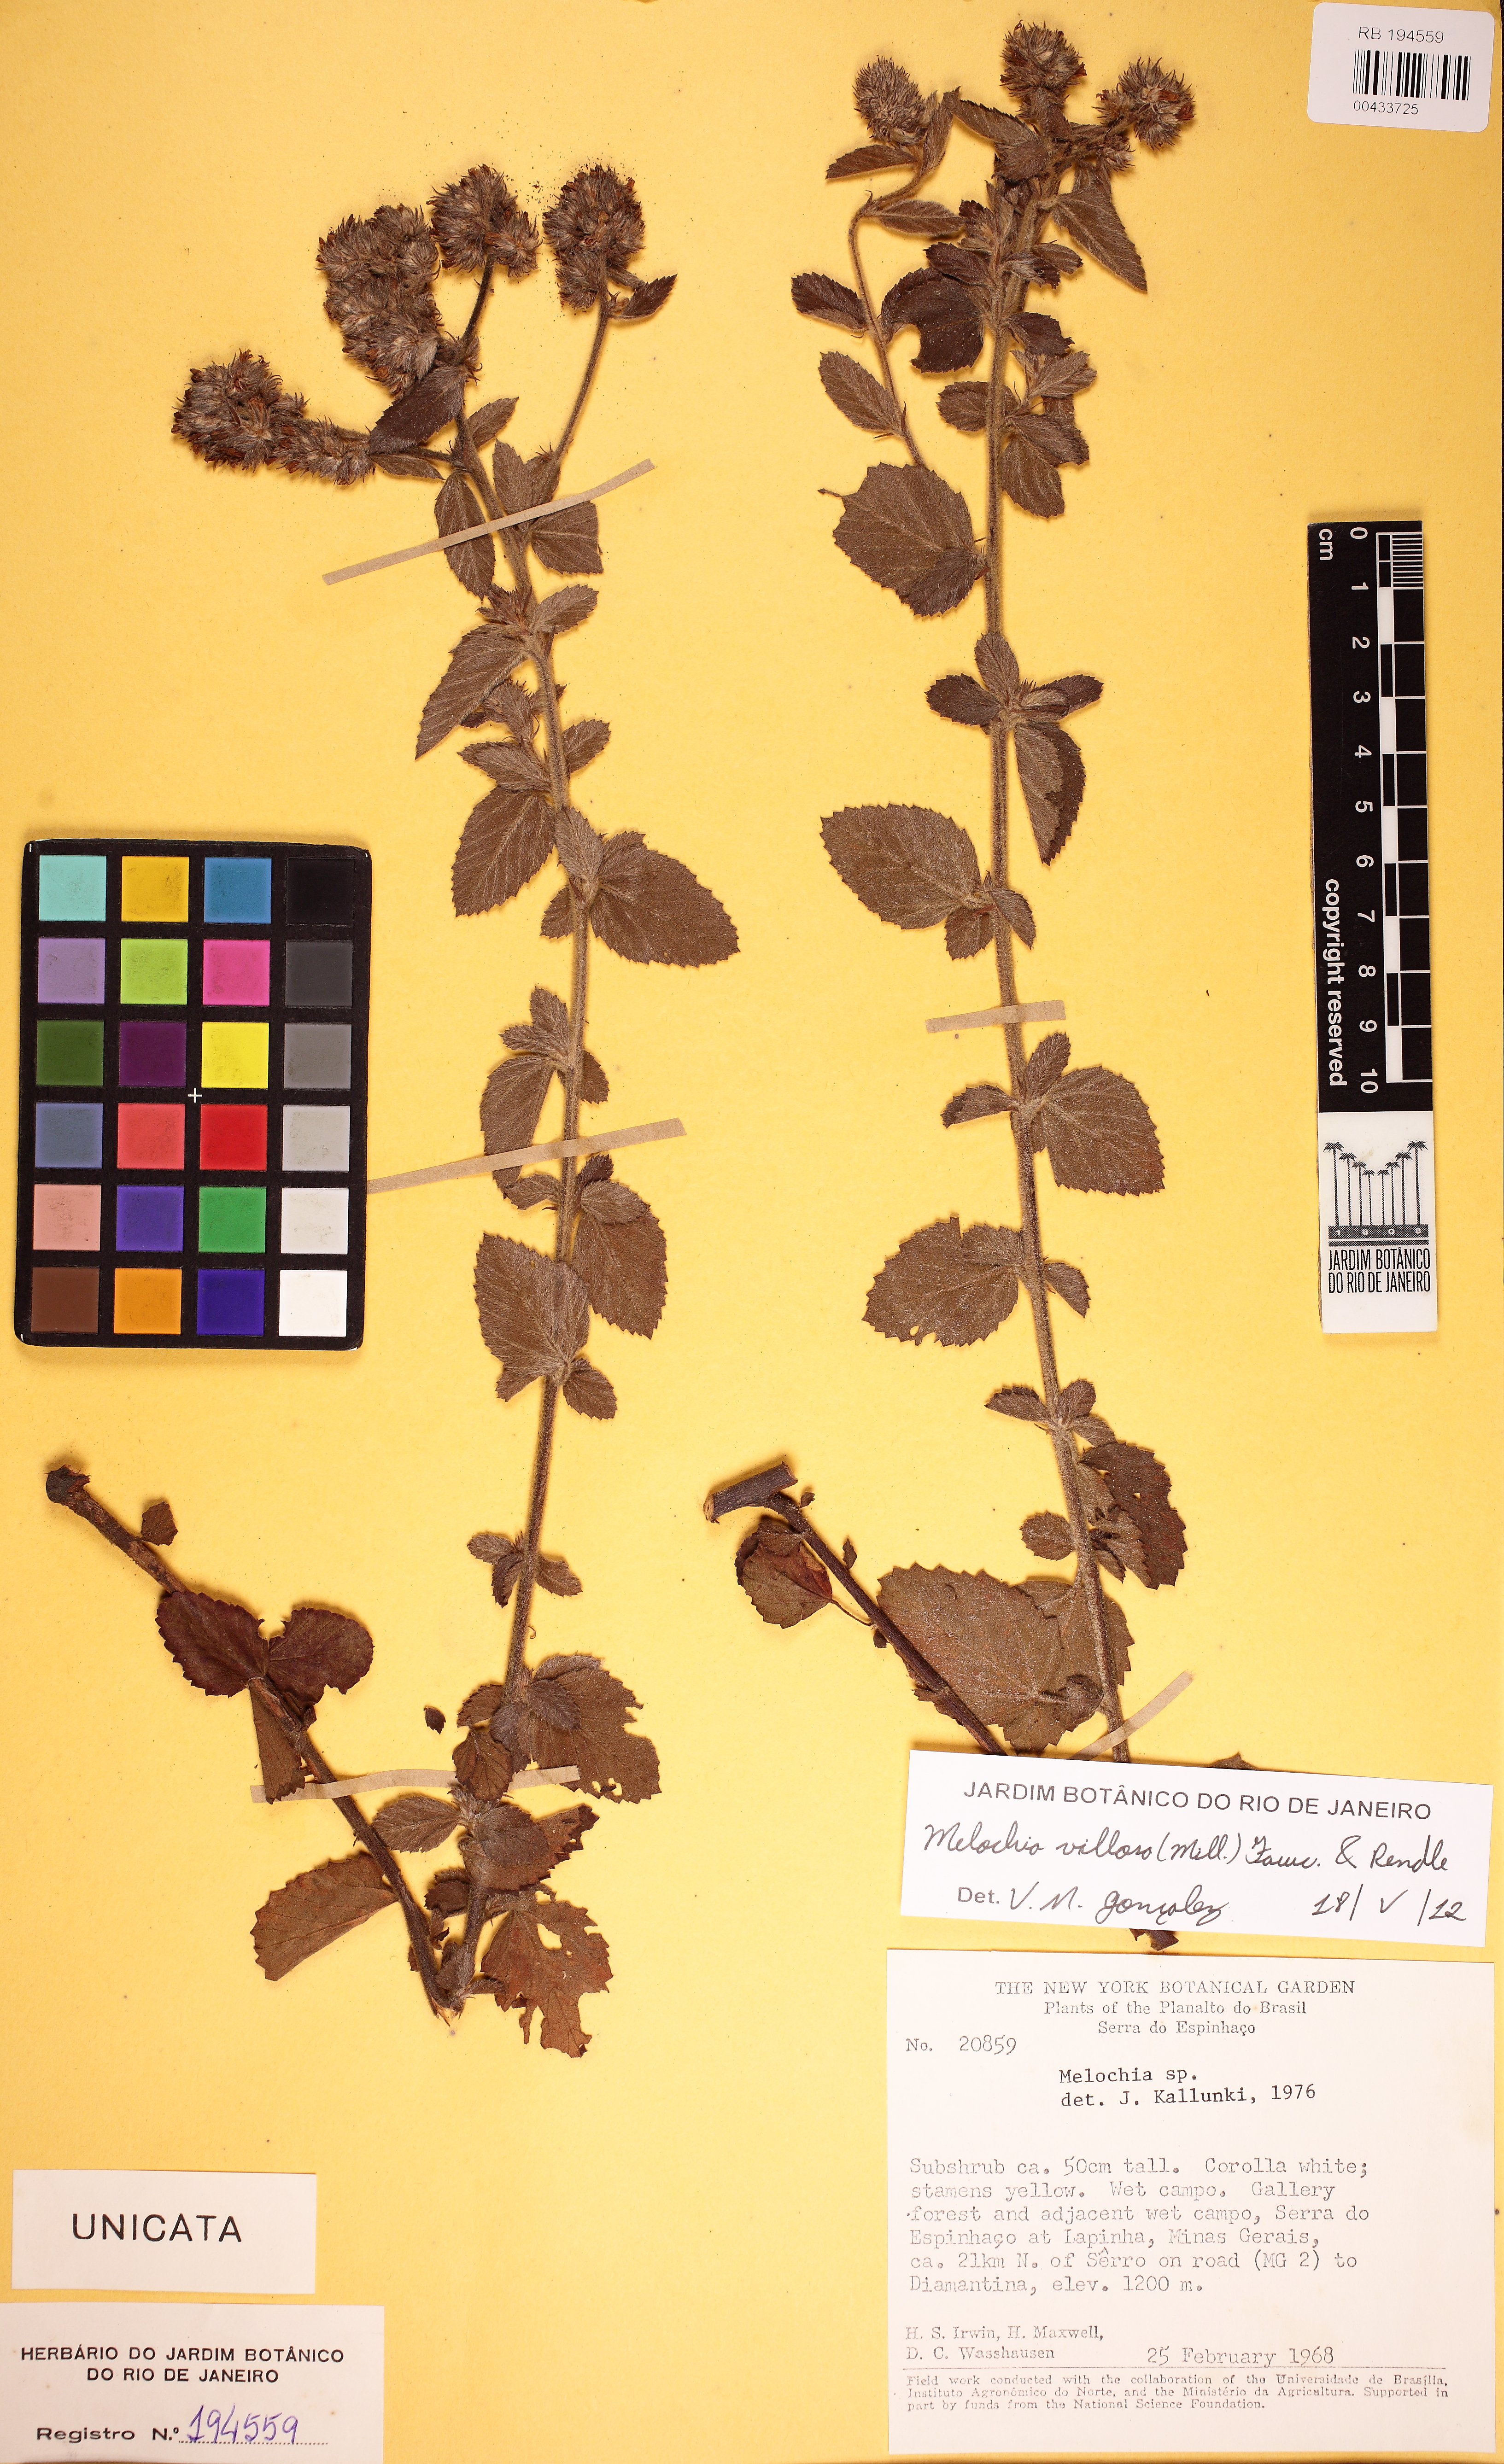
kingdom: Plantae
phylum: Tracheophyta
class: Magnoliopsida
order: Malvales
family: Malvaceae
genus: Melochia
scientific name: Melochia spicata
